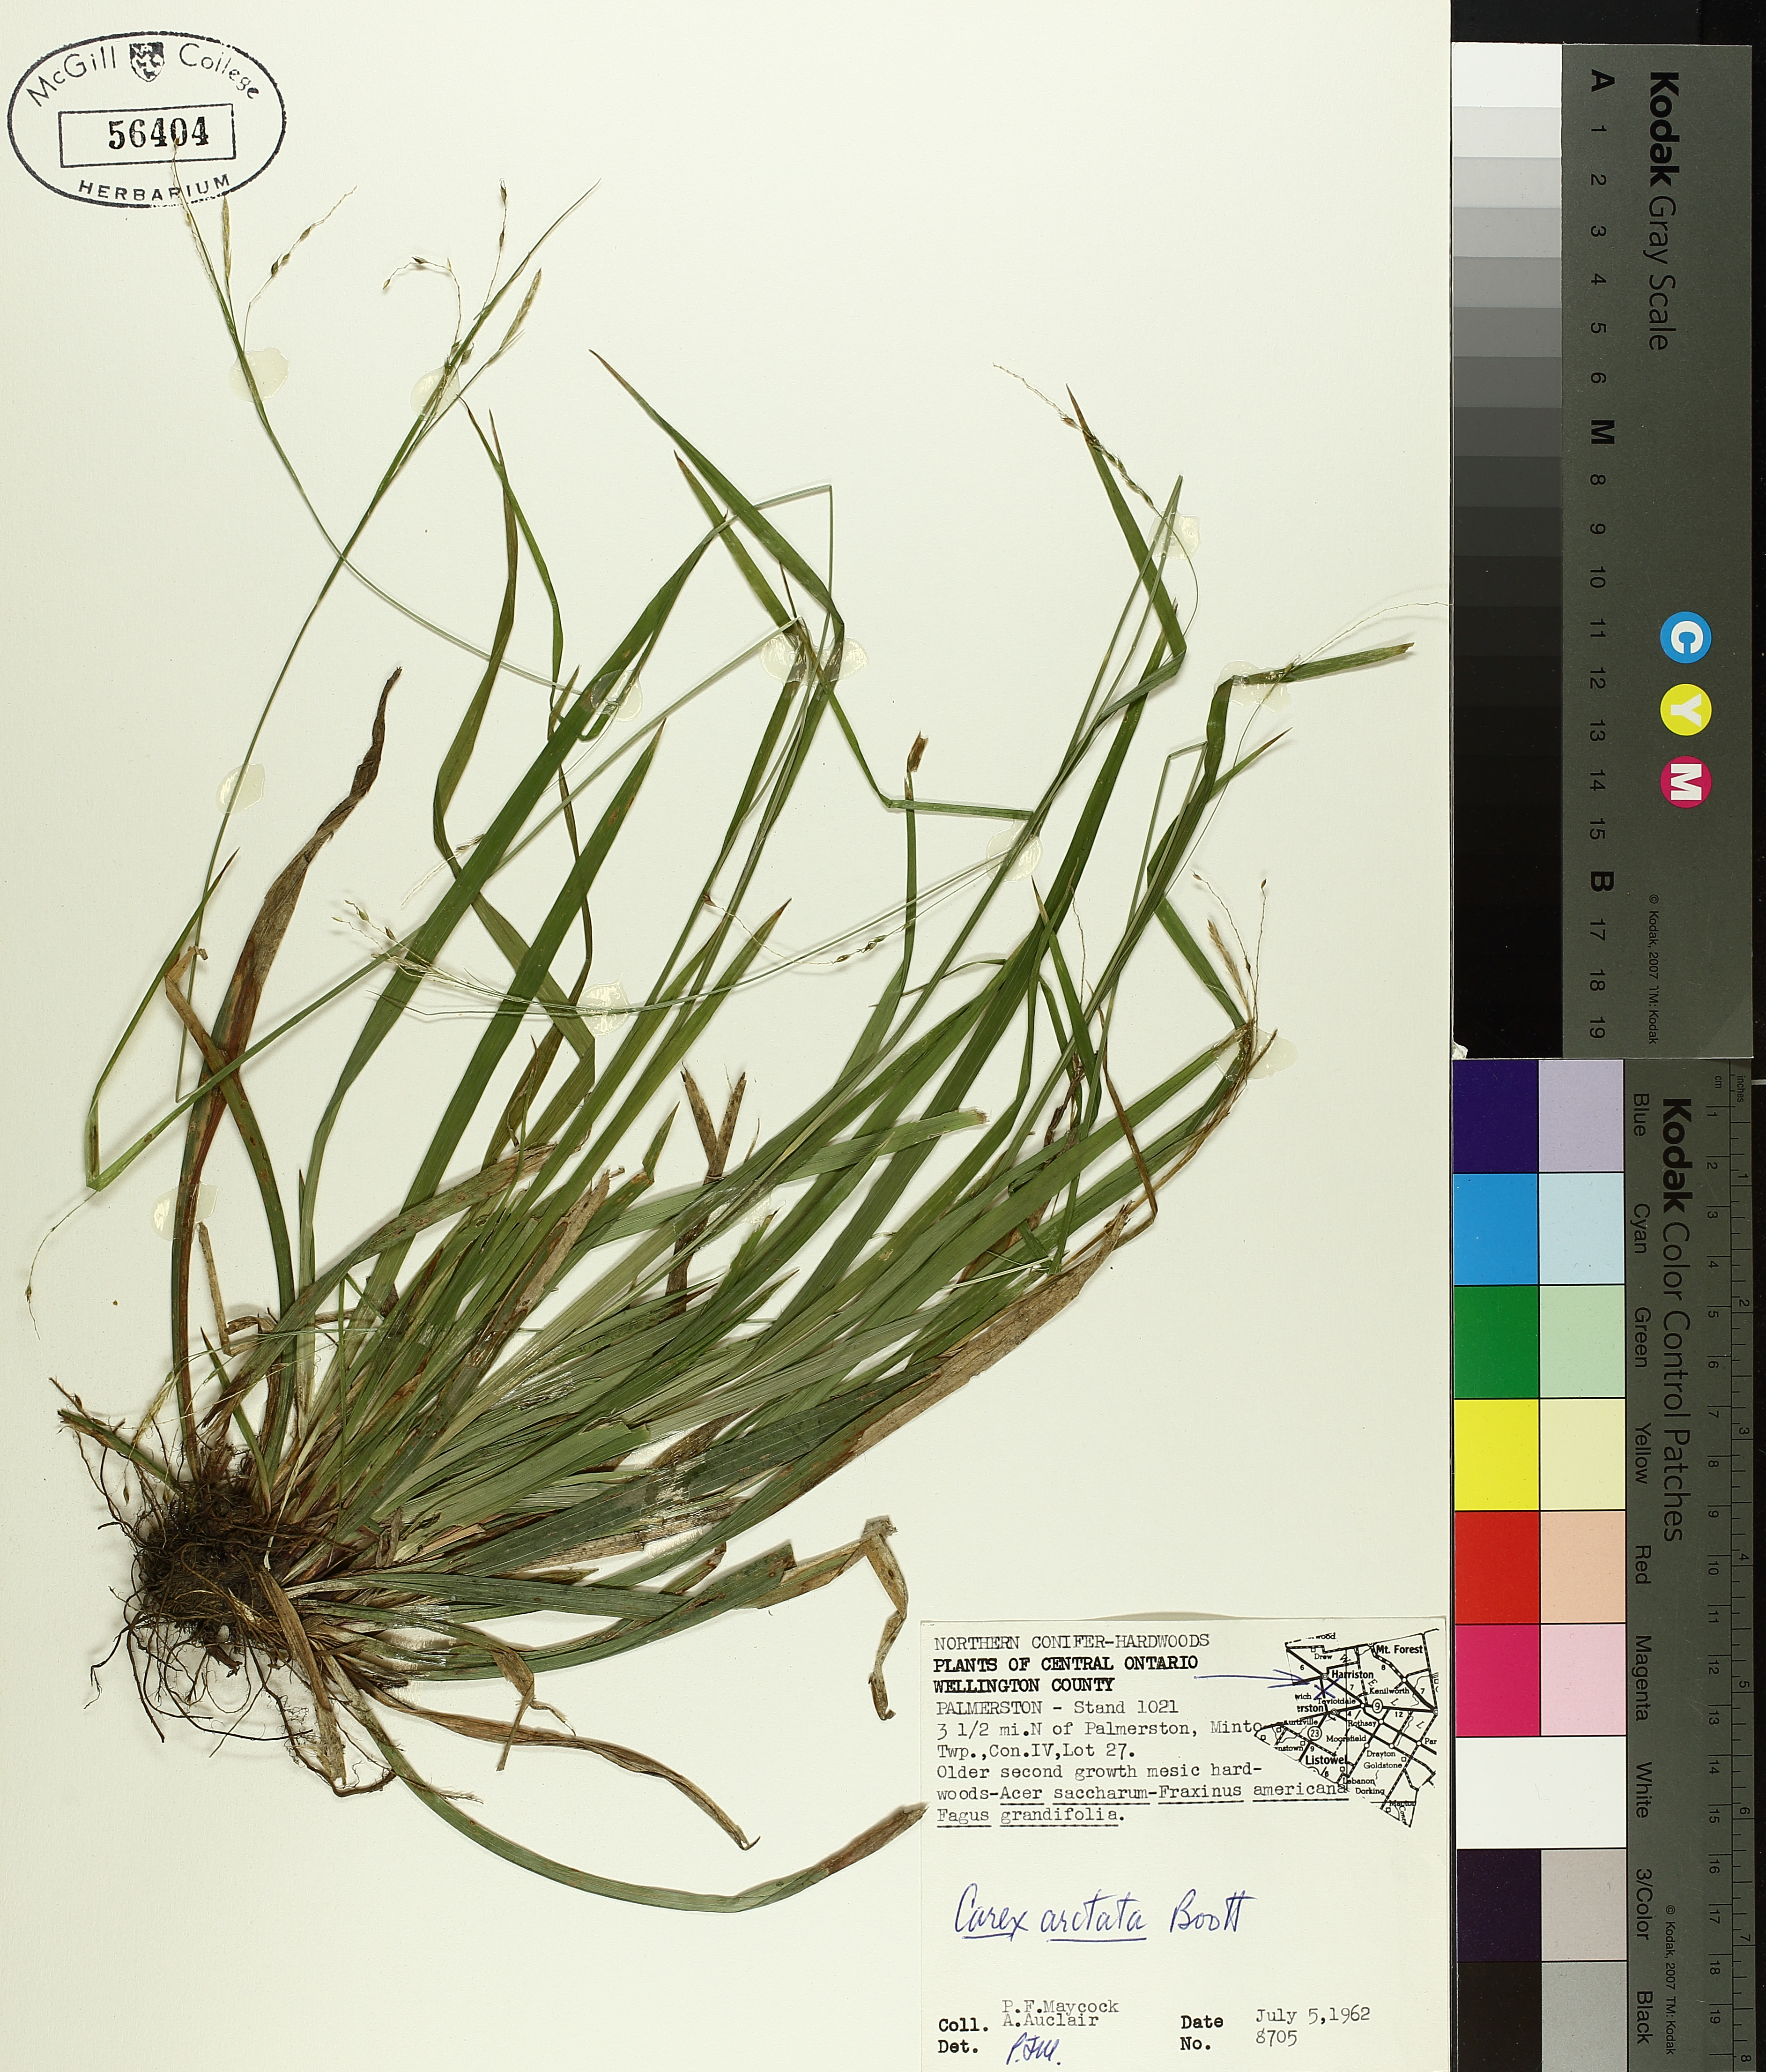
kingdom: Plantae
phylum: Tracheophyta
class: Liliopsida
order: Poales
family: Cyperaceae
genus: Carex
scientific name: Carex arctata
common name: Black sedge
